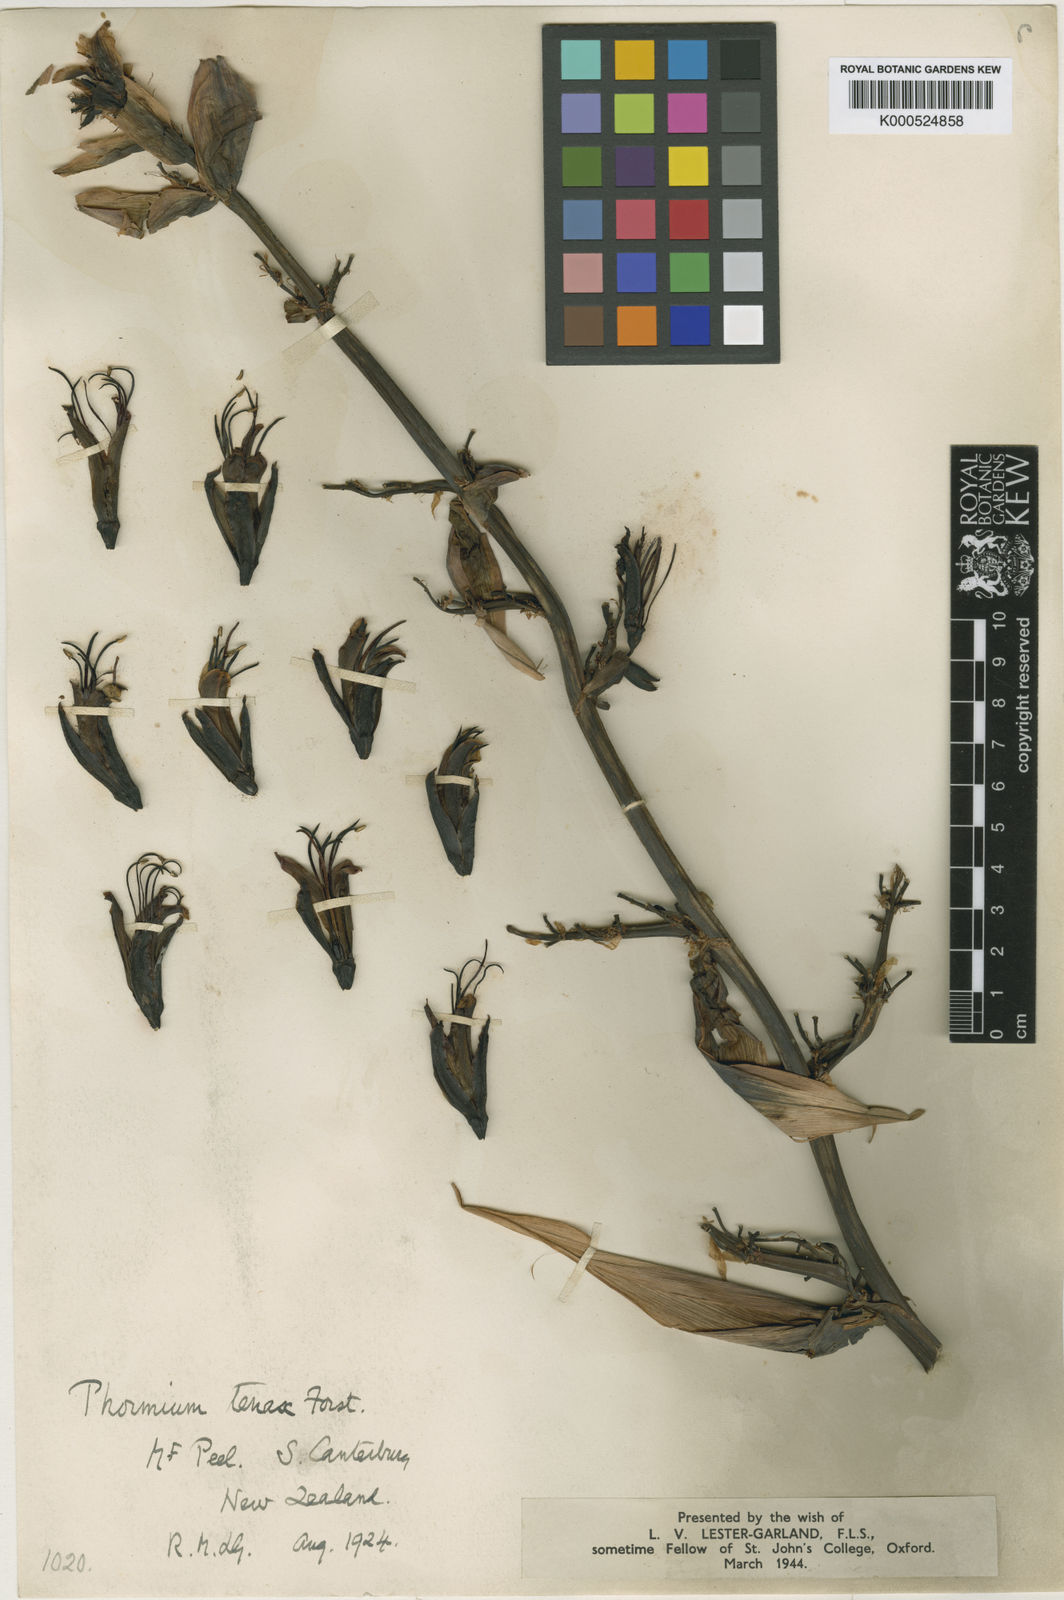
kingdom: Plantae
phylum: Tracheophyta
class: Liliopsida
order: Asparagales
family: Asphodelaceae
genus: Phormium
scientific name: Phormium tenax
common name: New zealand flax
